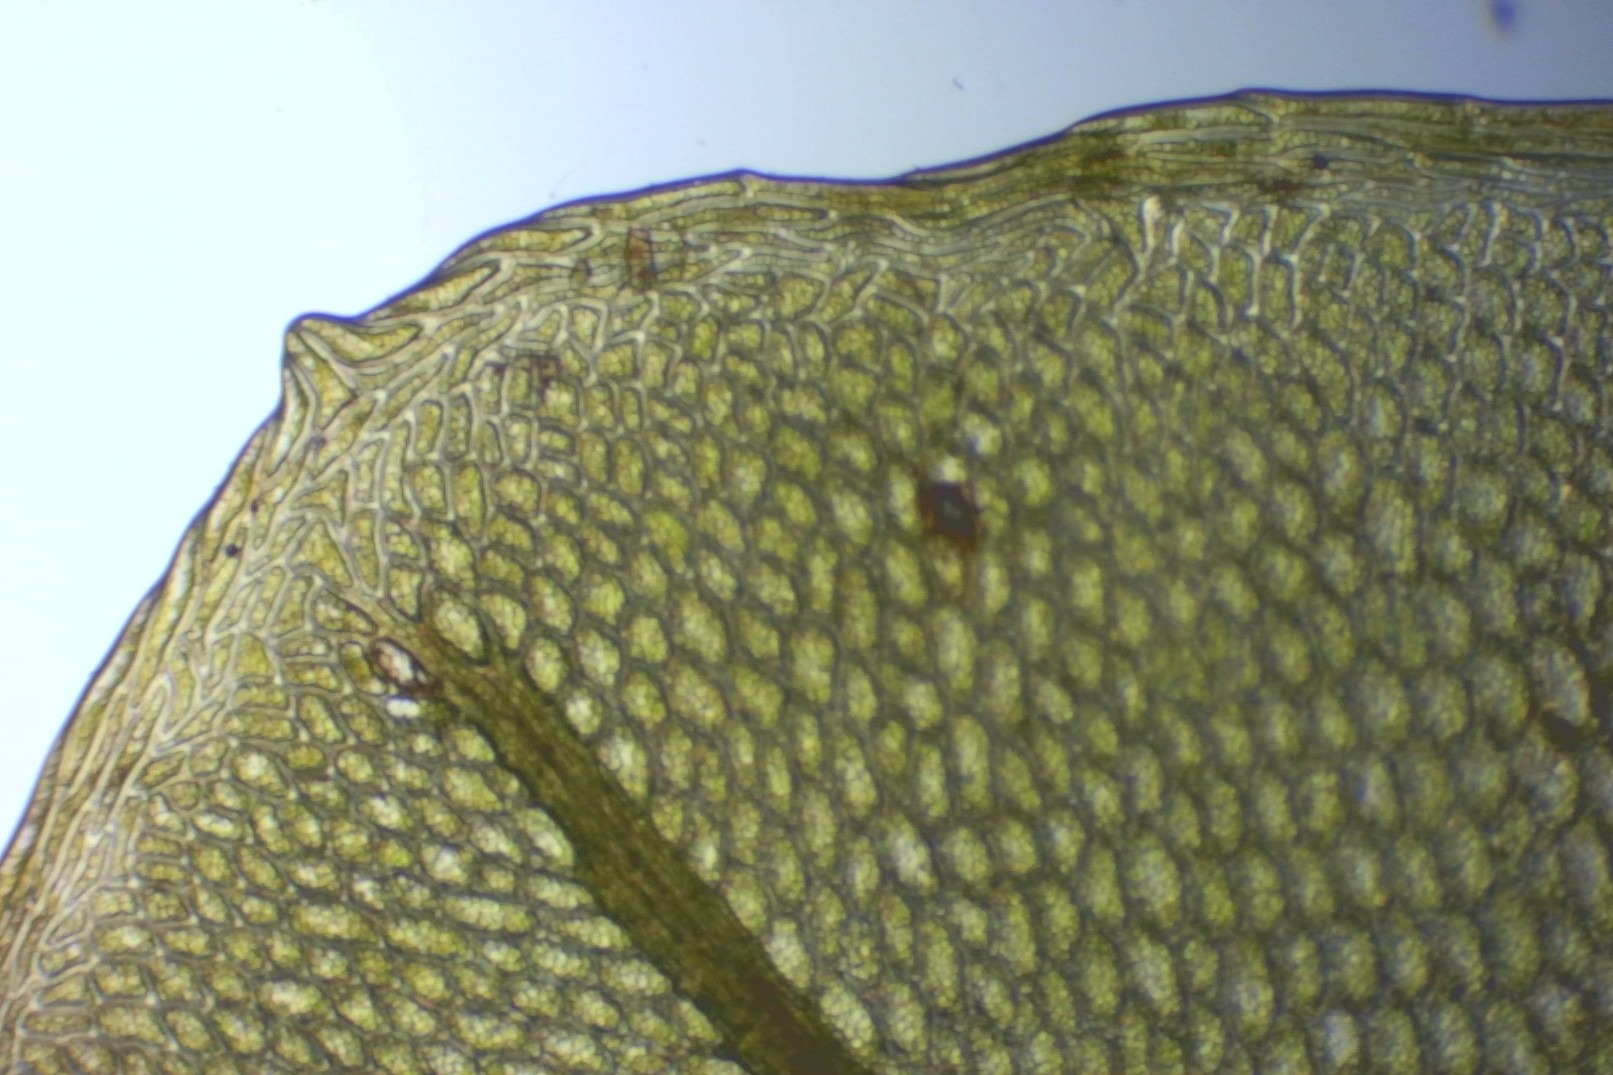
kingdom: Plantae
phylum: Bryophyta
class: Bryopsida
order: Bryales
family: Mniaceae
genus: Rhizomnium
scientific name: Rhizomnium punctatum
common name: Almindelig bredblad
